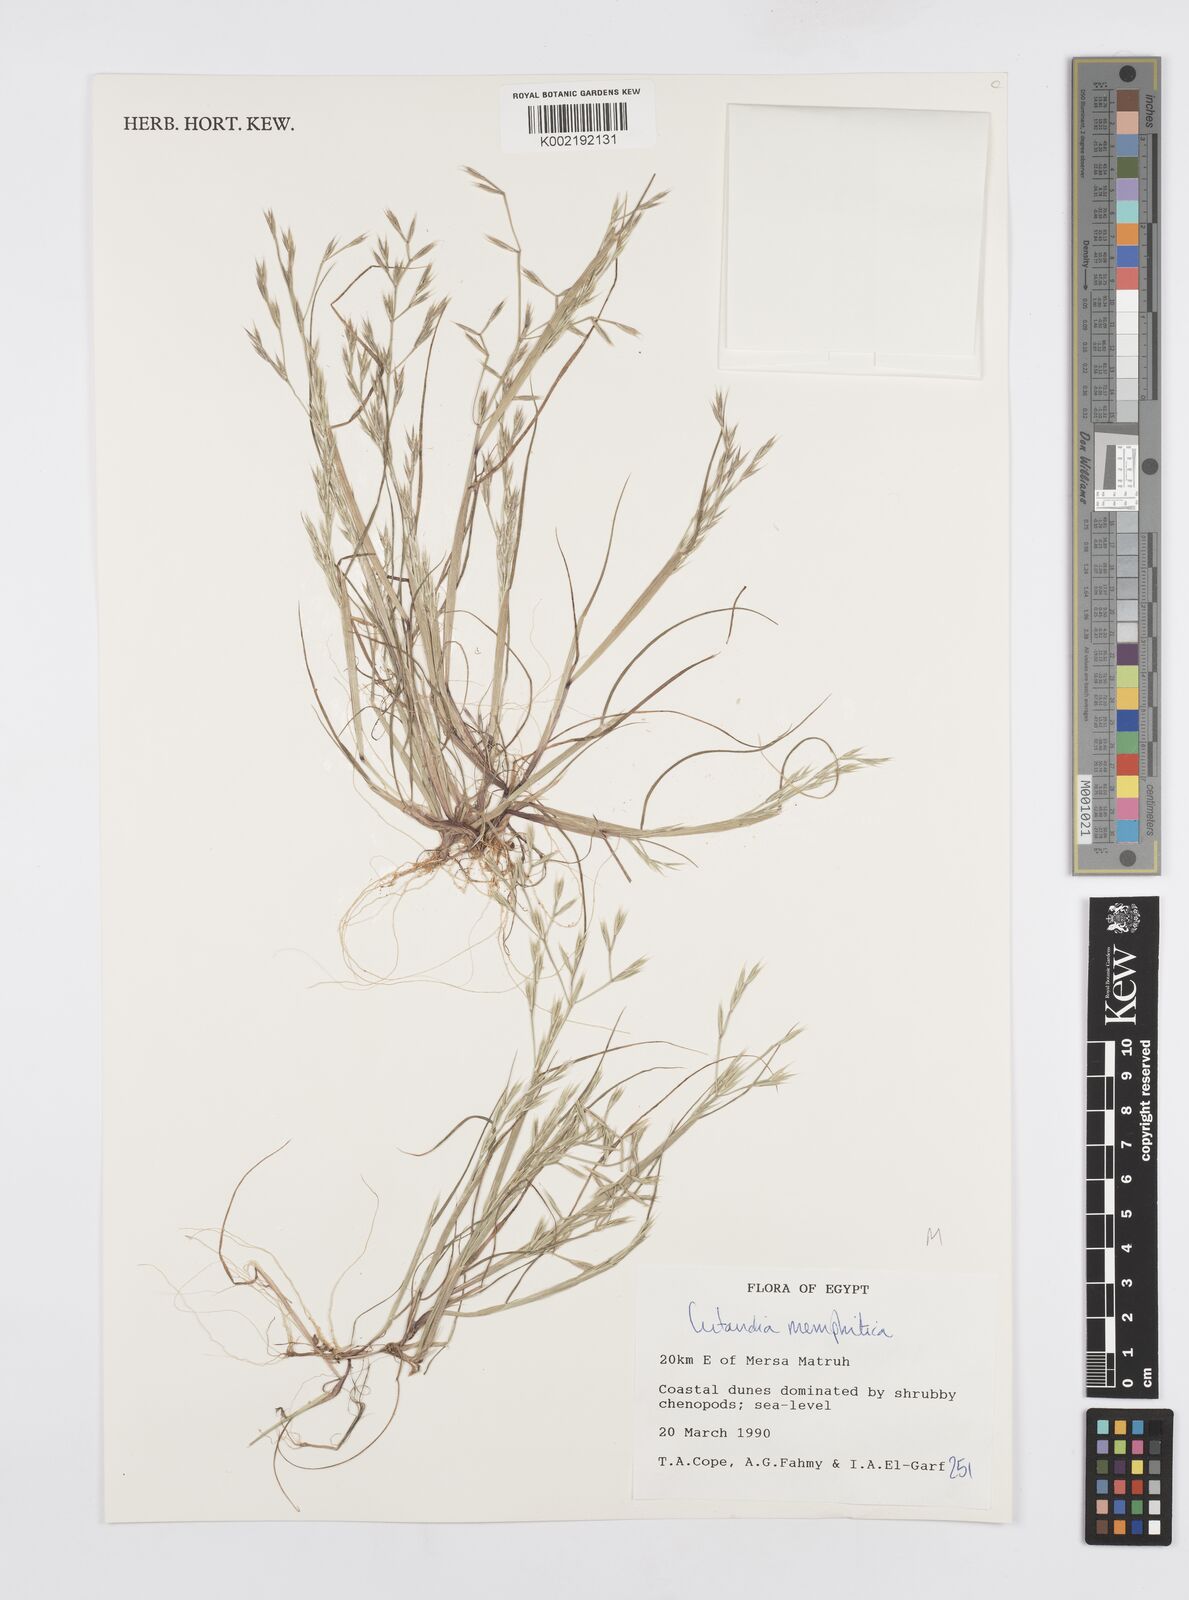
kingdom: Plantae
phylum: Tracheophyta
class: Liliopsida
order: Poales
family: Poaceae
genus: Cutandia
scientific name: Cutandia memphitica
